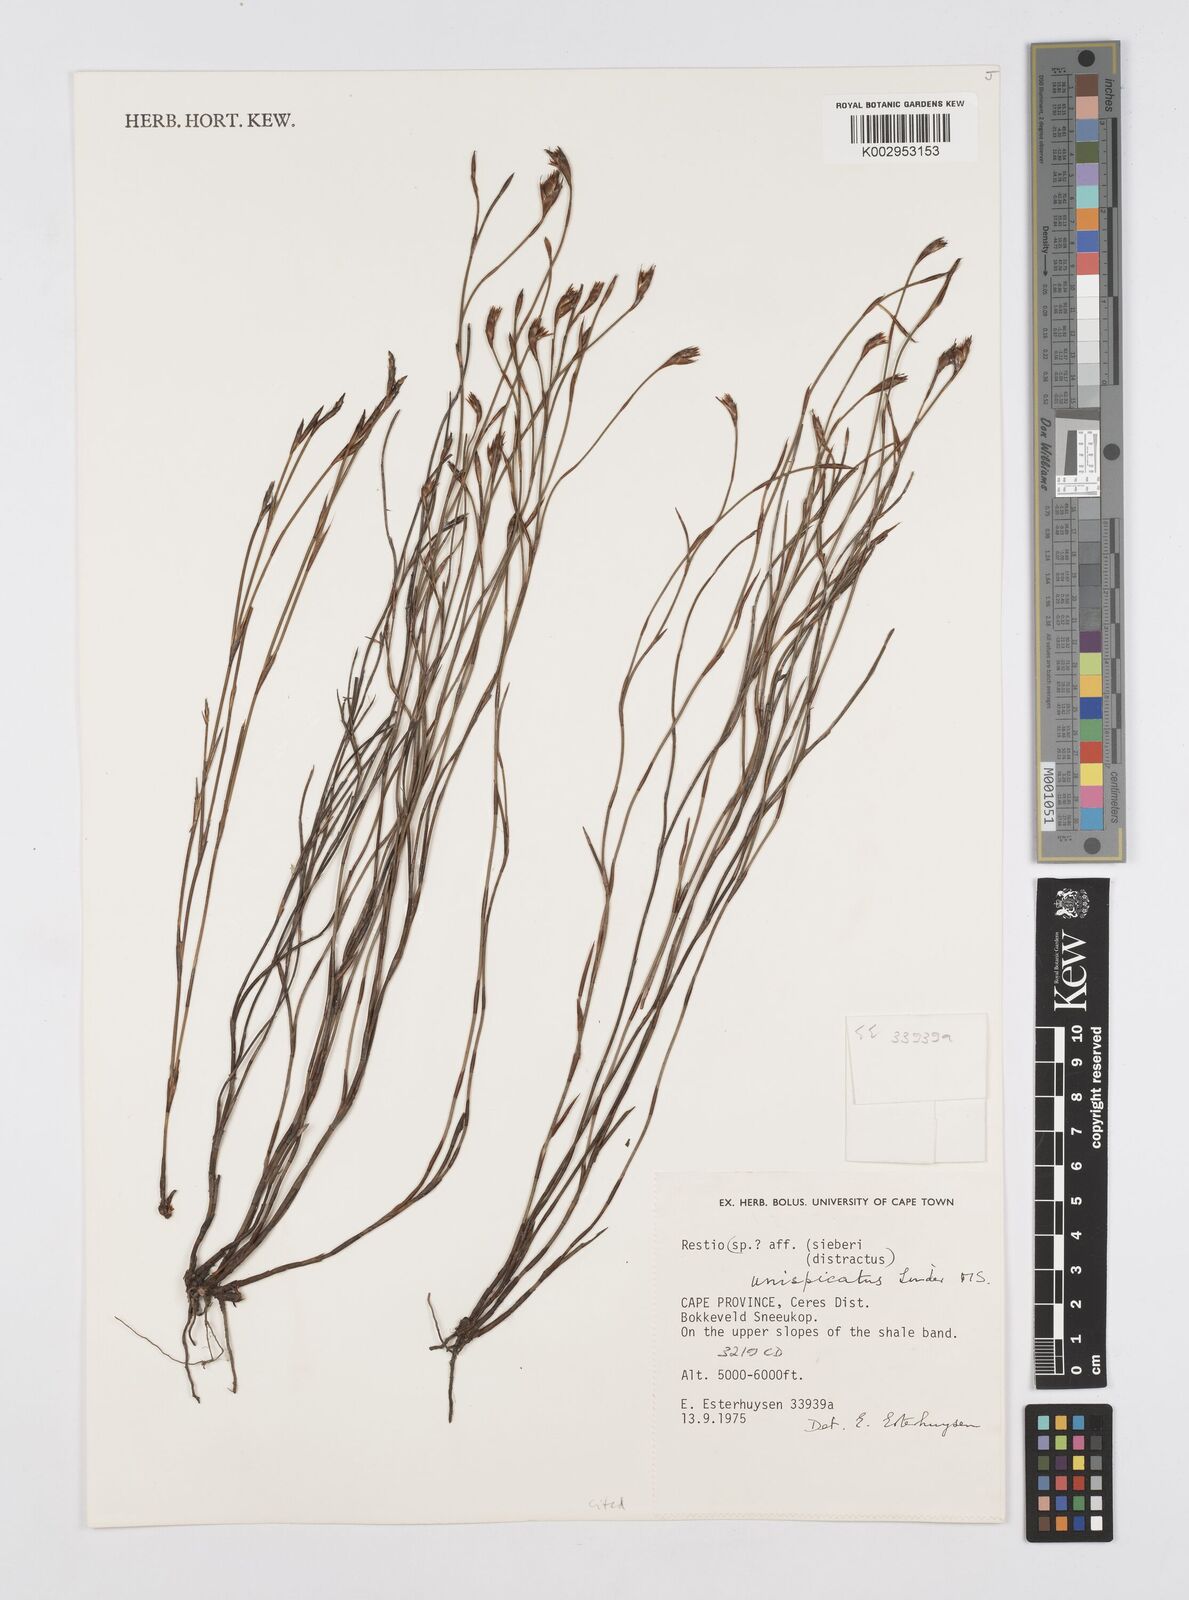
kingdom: Plantae
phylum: Tracheophyta
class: Liliopsida
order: Poales
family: Restionaceae
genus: Restio
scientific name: Restio unispicatus
